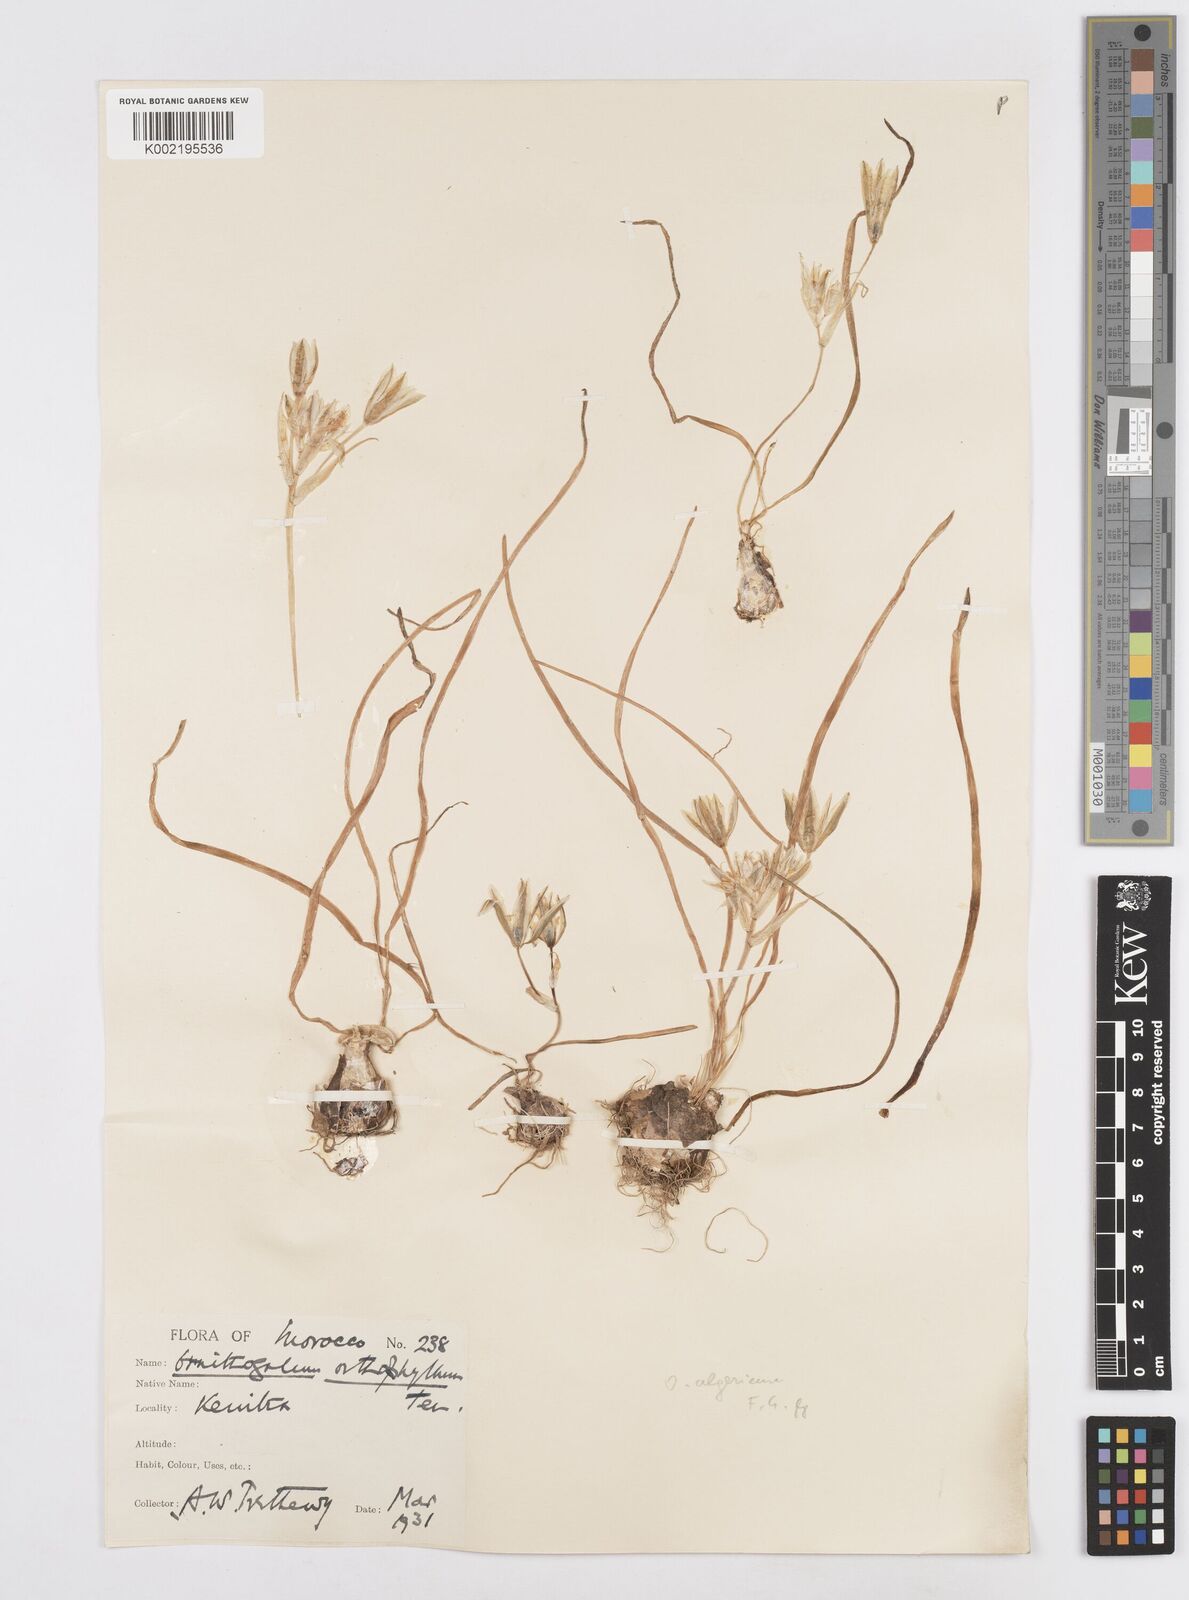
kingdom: Plantae
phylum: Tracheophyta
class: Liliopsida
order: Asparagales
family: Asparagaceae
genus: Ornithogalum
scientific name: Ornithogalum baeticum
